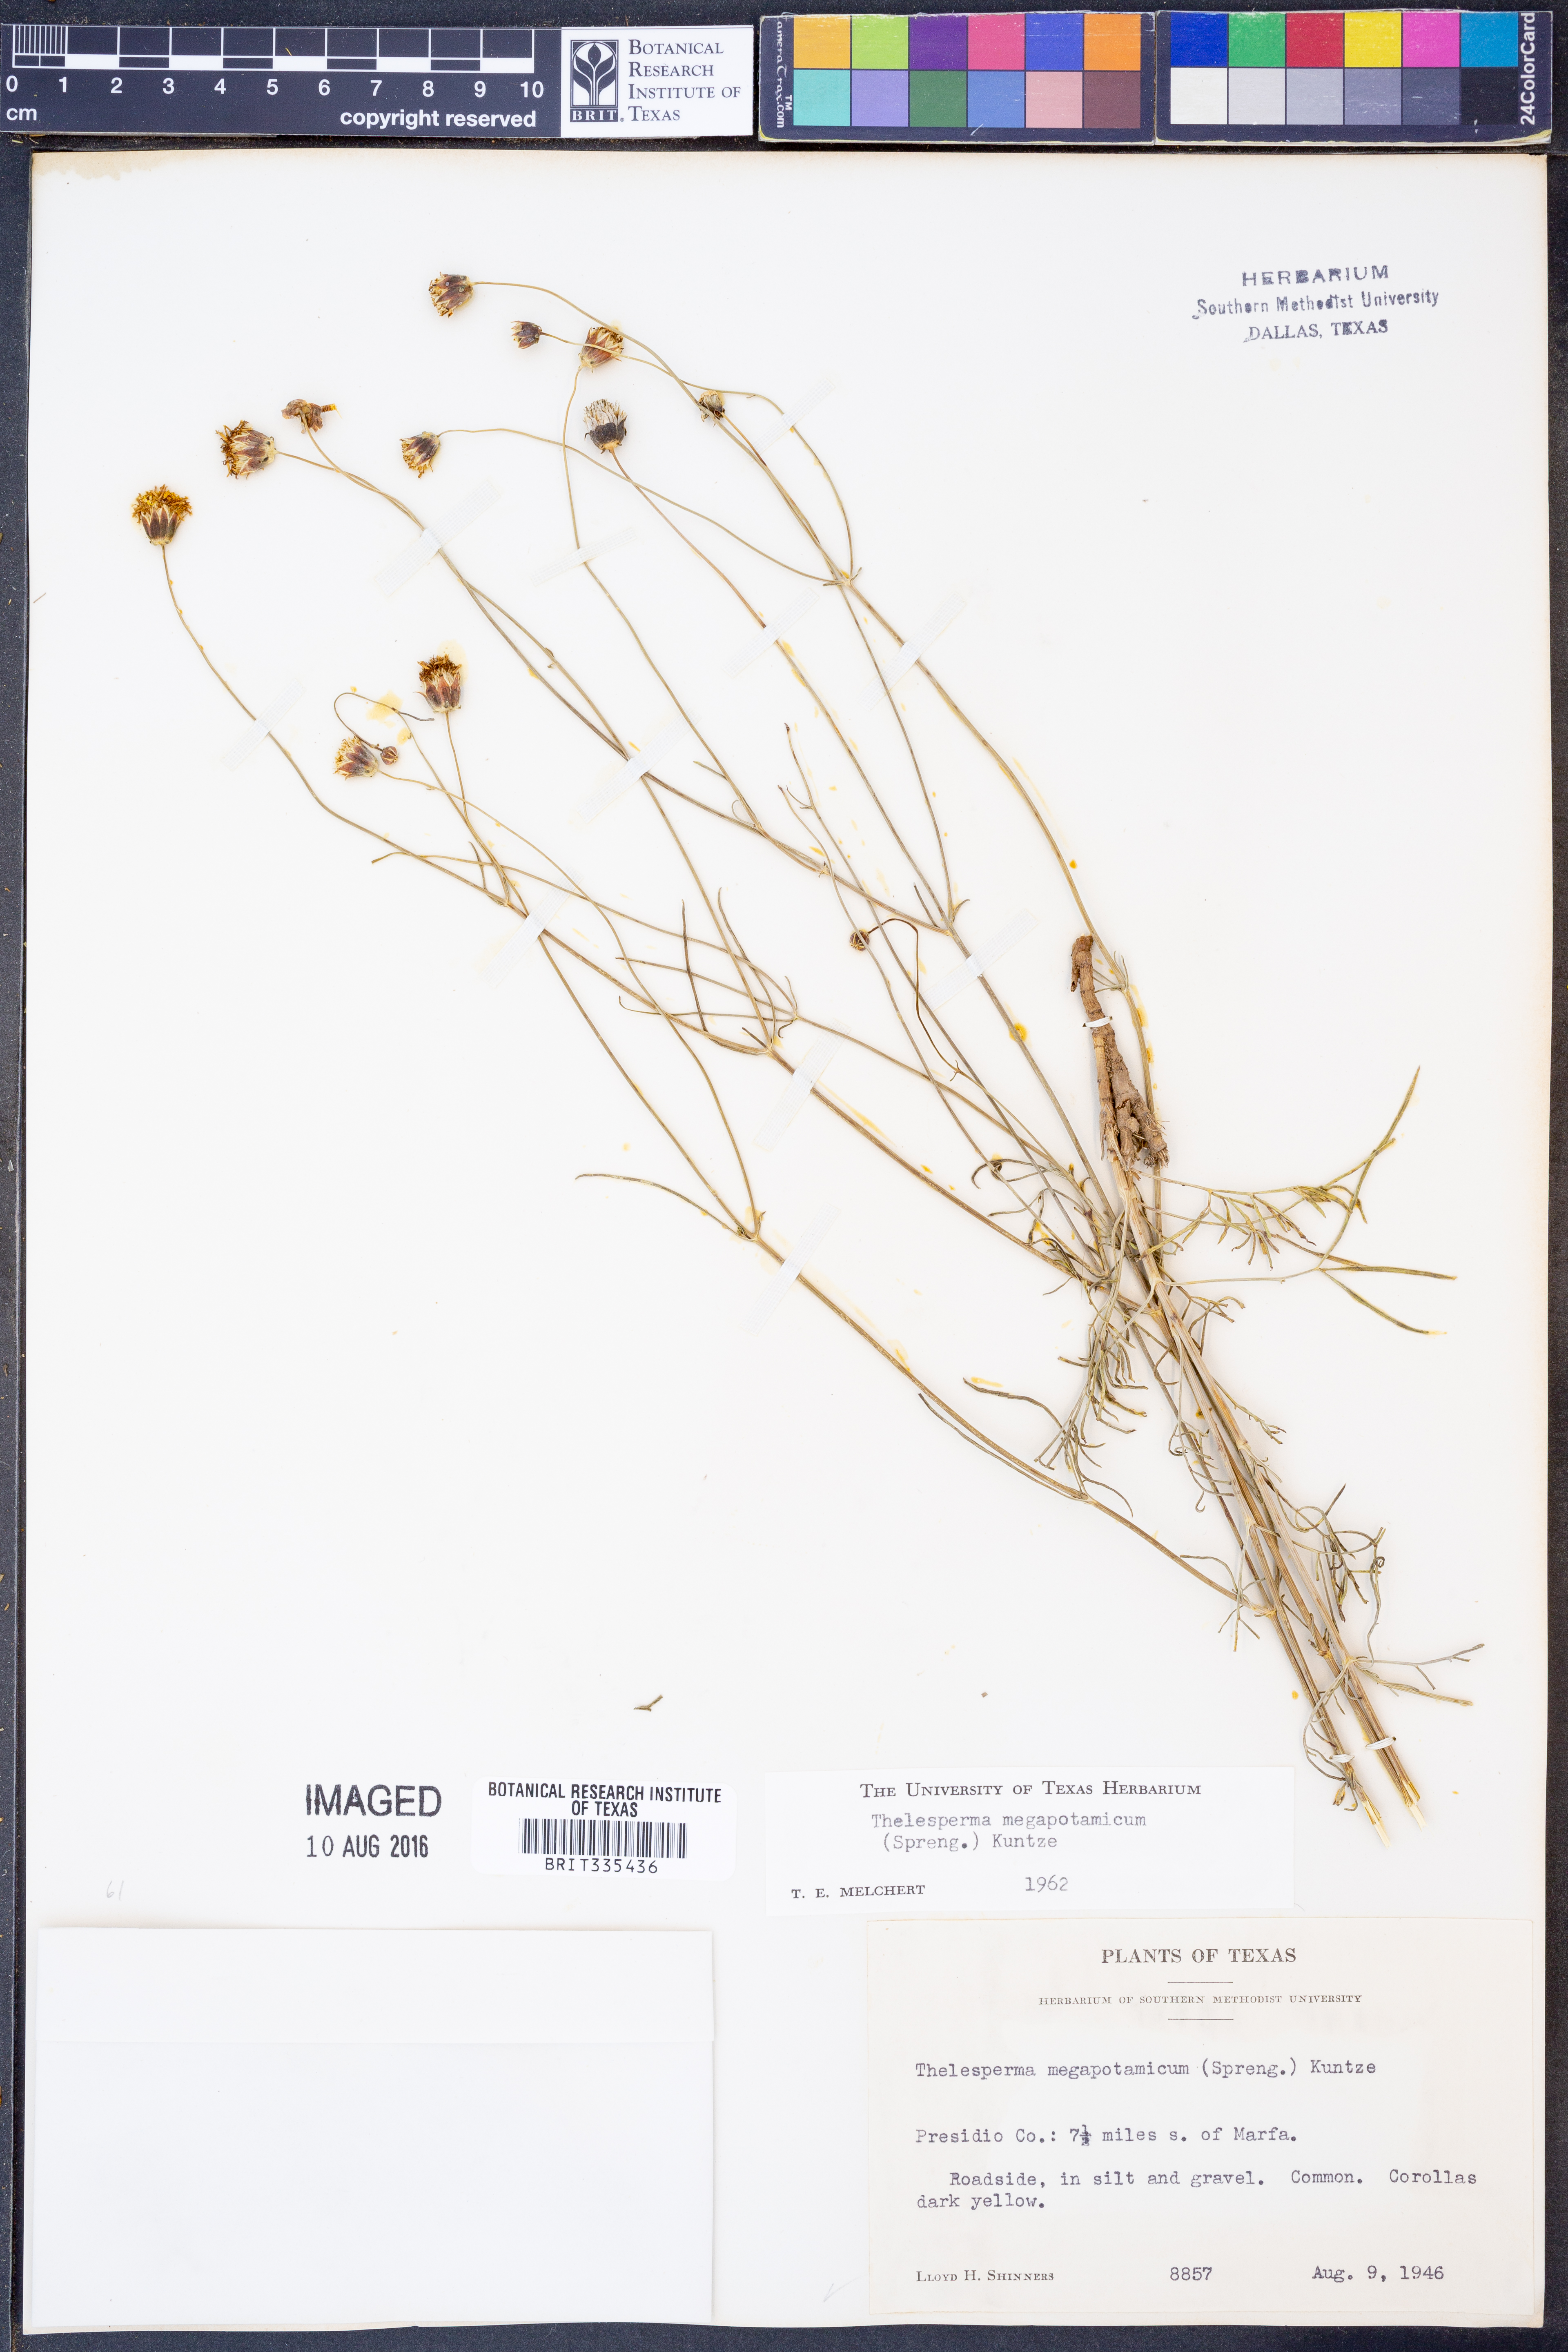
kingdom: Plantae
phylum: Tracheophyta
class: Magnoliopsida
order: Asterales
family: Asteraceae
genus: Thelesperma
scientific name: Thelesperma megapotamicum
